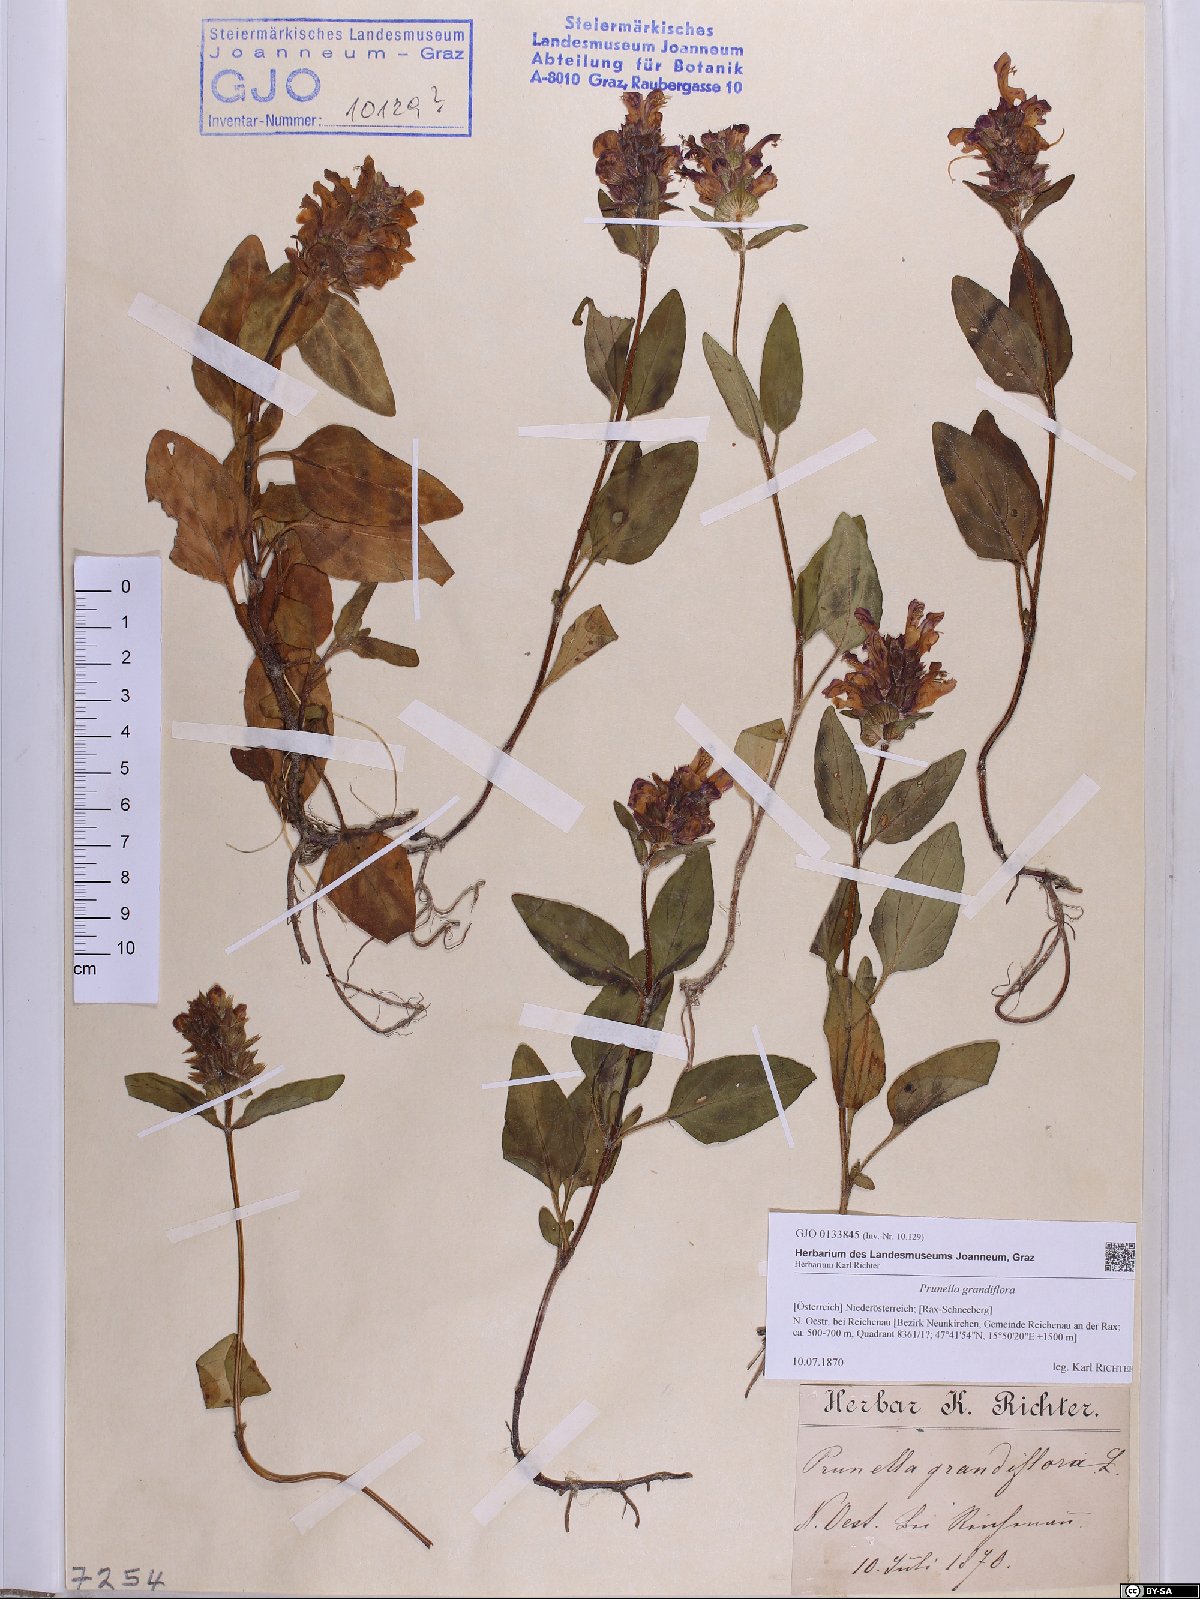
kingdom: Plantae
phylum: Tracheophyta
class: Magnoliopsida
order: Lamiales
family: Lamiaceae
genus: Prunella
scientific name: Prunella grandiflora
